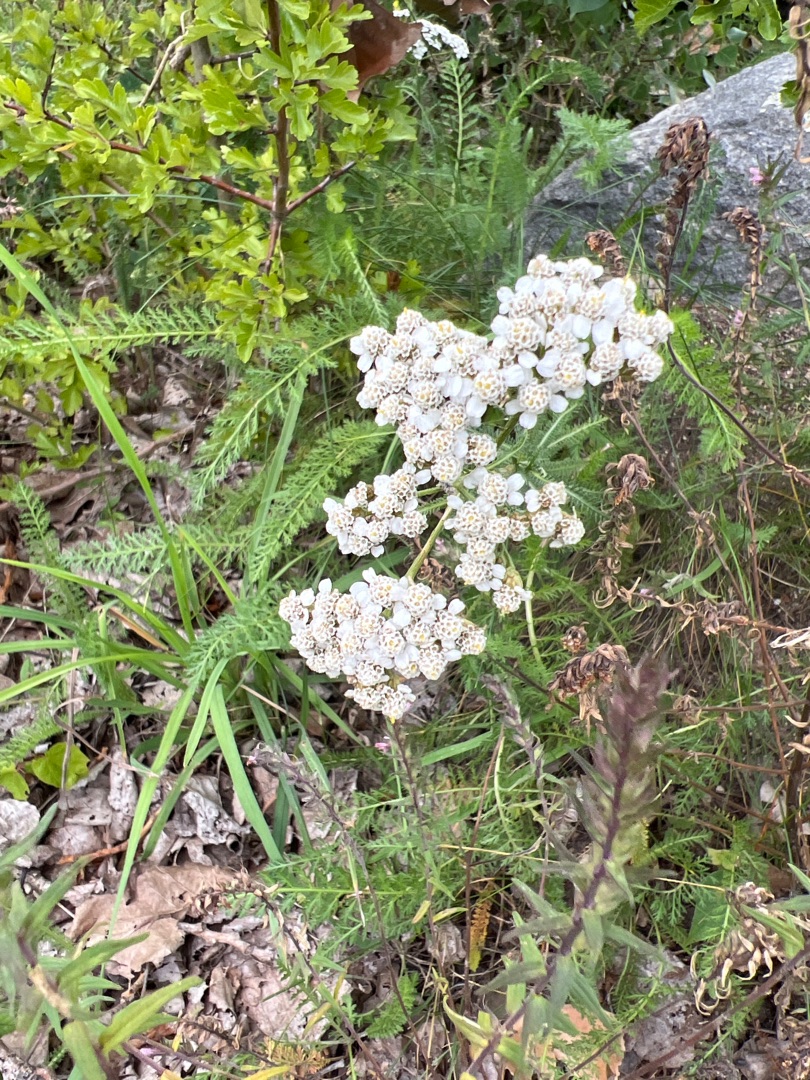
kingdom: Plantae
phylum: Tracheophyta
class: Magnoliopsida
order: Asterales
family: Asteraceae
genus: Achillea
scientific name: Achillea millefolium
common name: Almindelig røllike
